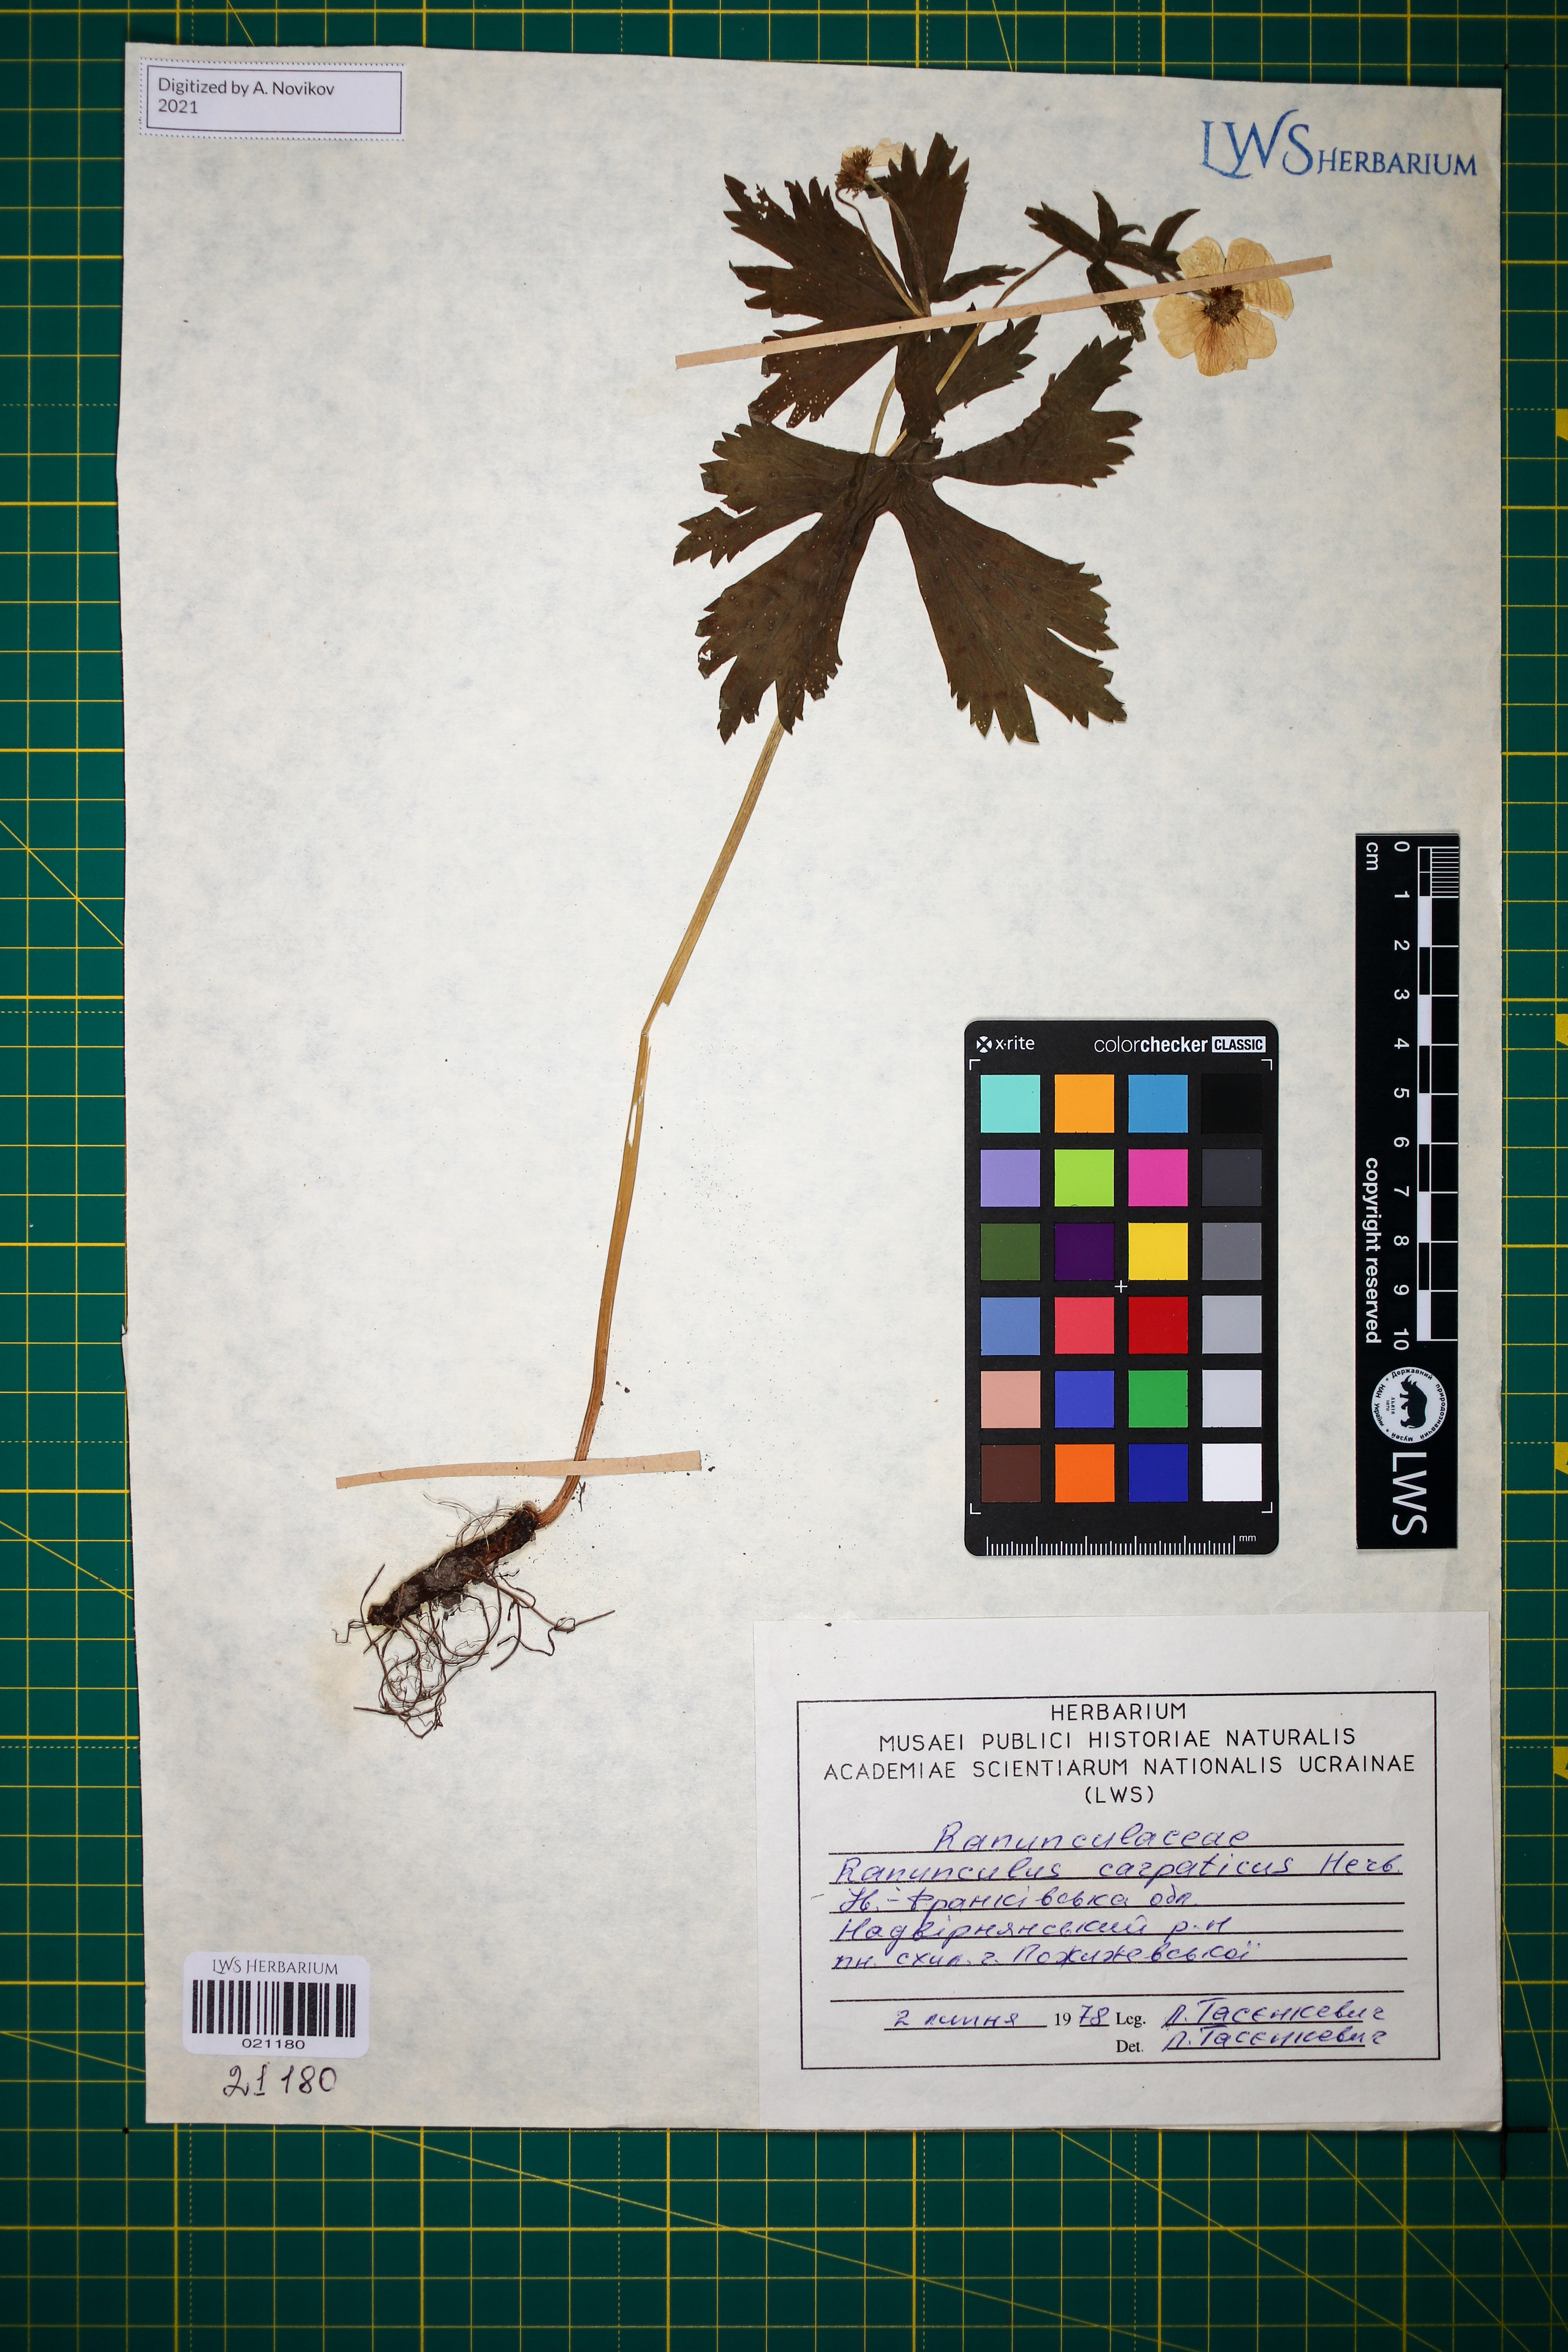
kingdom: Plantae
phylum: Tracheophyta
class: Magnoliopsida
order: Ranunculales
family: Ranunculaceae
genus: Ranunculus
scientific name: Ranunculus carpaticus
